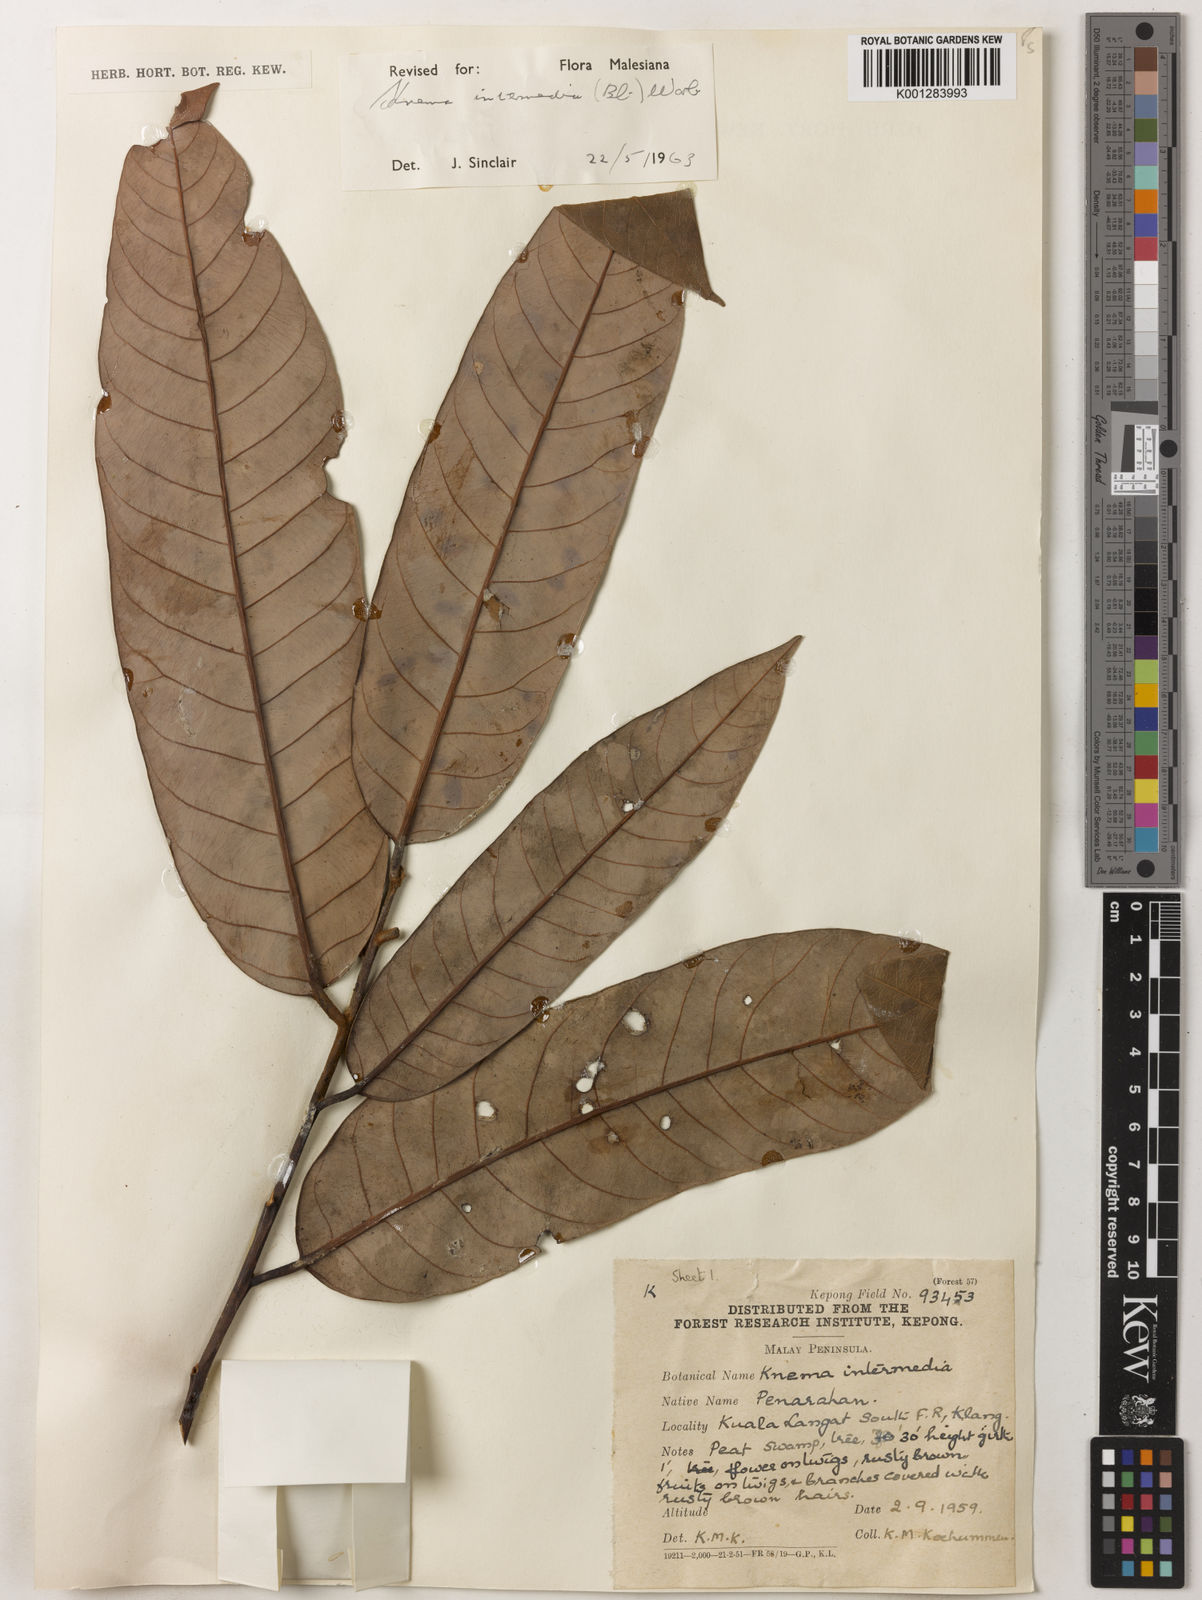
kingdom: Plantae
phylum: Tracheophyta
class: Magnoliopsida
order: Magnoliales
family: Myristicaceae
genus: Knema
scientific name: Knema intermedia
